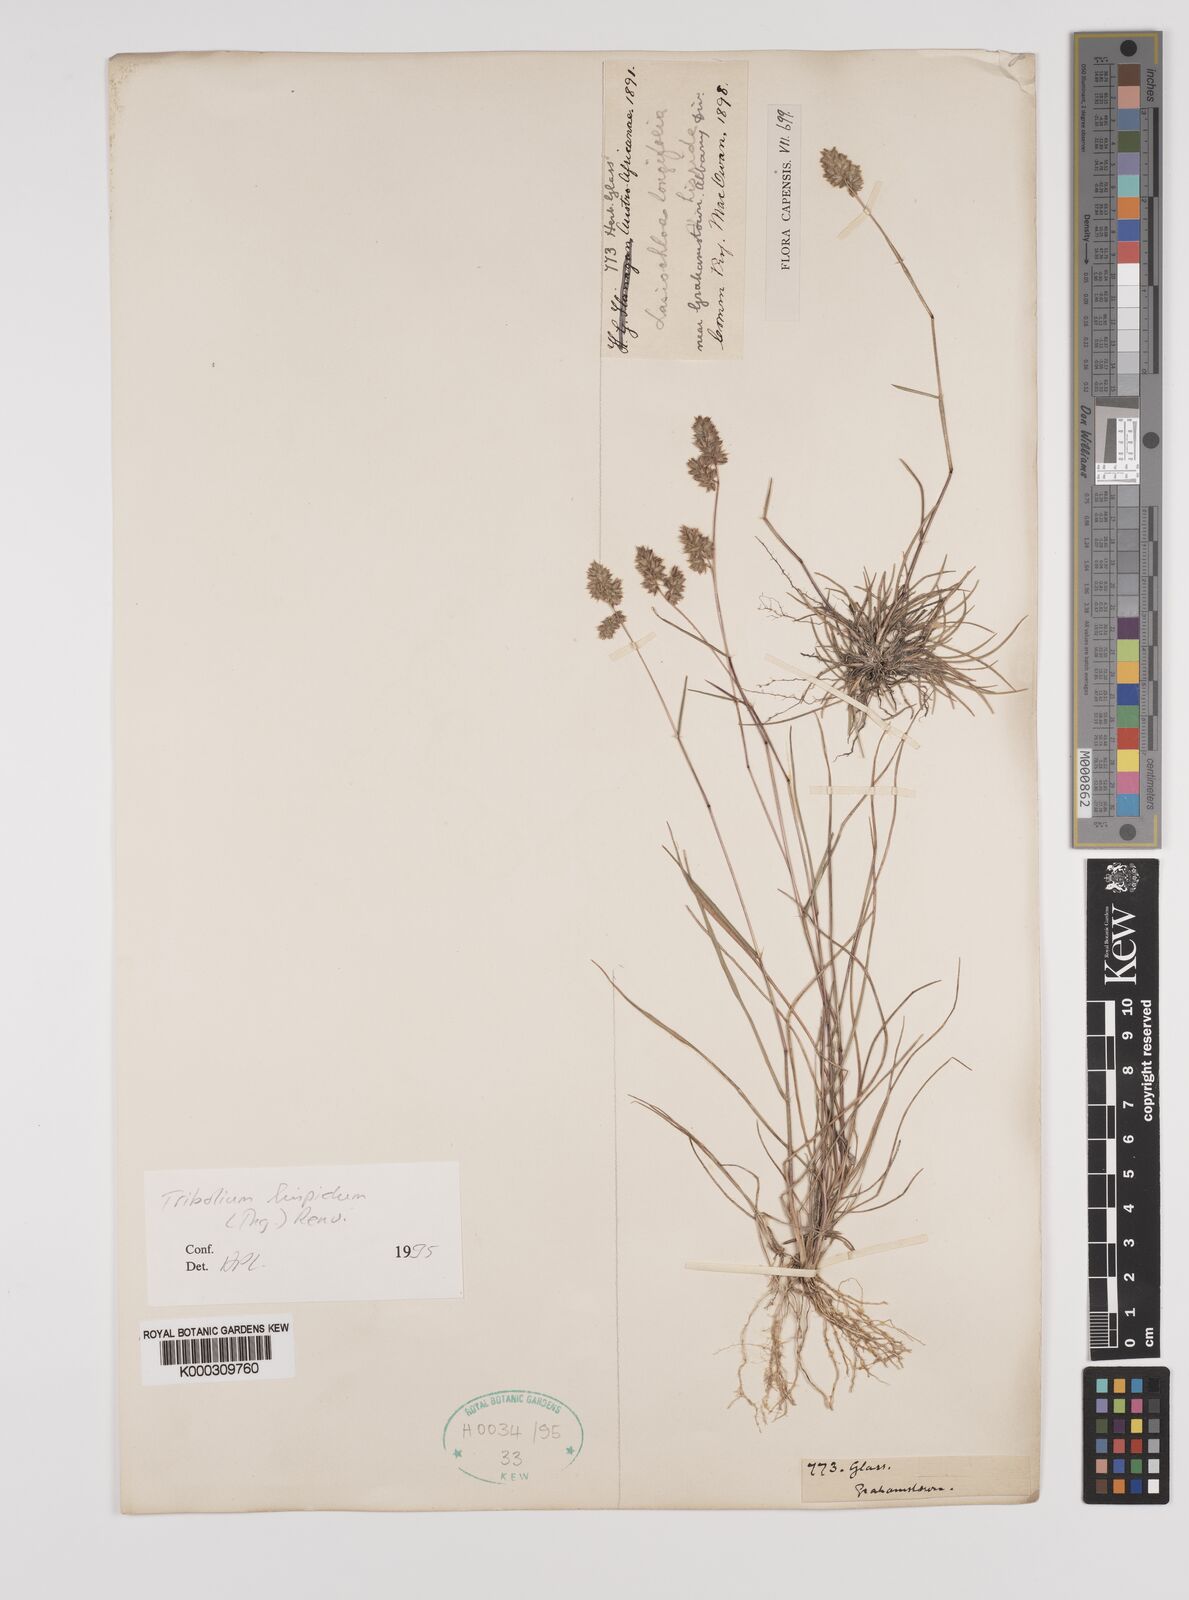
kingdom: Plantae
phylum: Tracheophyta
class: Liliopsida
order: Poales
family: Poaceae
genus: Tribolium
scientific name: Tribolium hispidum
